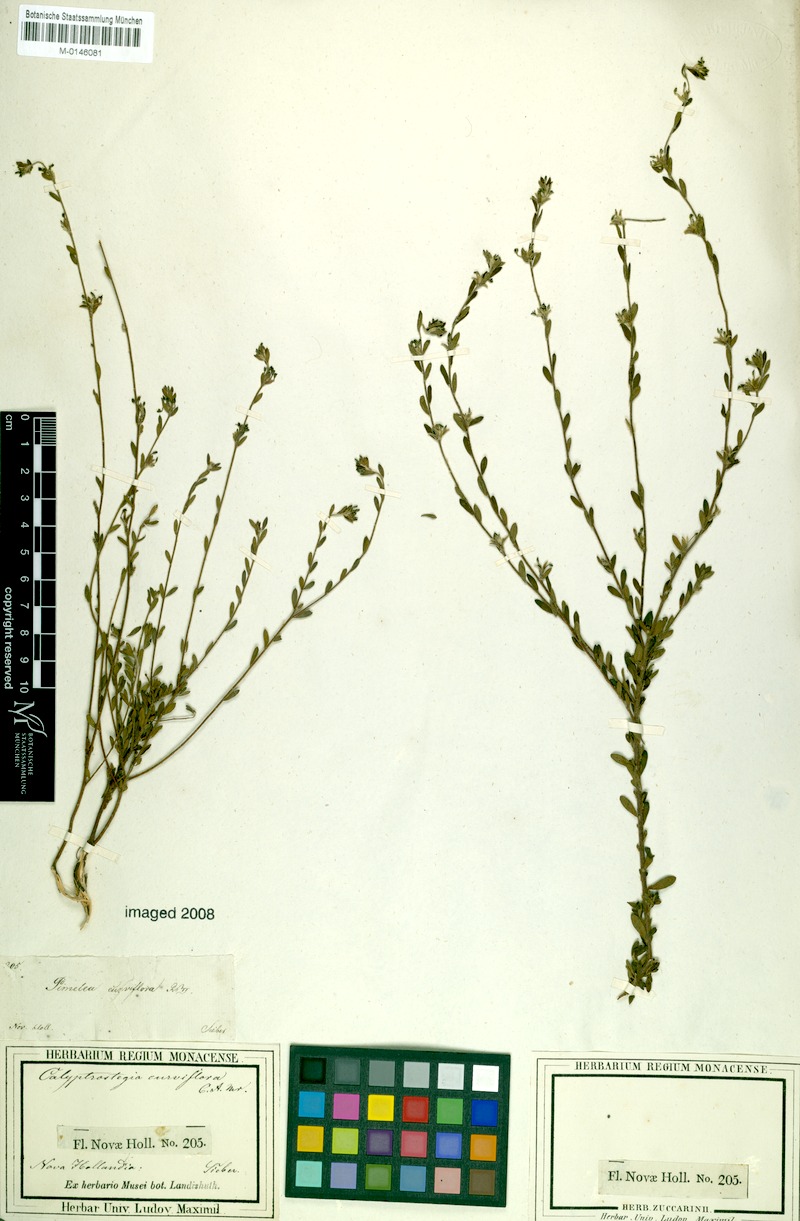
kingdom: Plantae
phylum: Tracheophyta
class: Magnoliopsida
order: Malvales
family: Thymelaeaceae
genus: Pimelea
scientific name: Pimelea curviflora
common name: Curved riceflower
